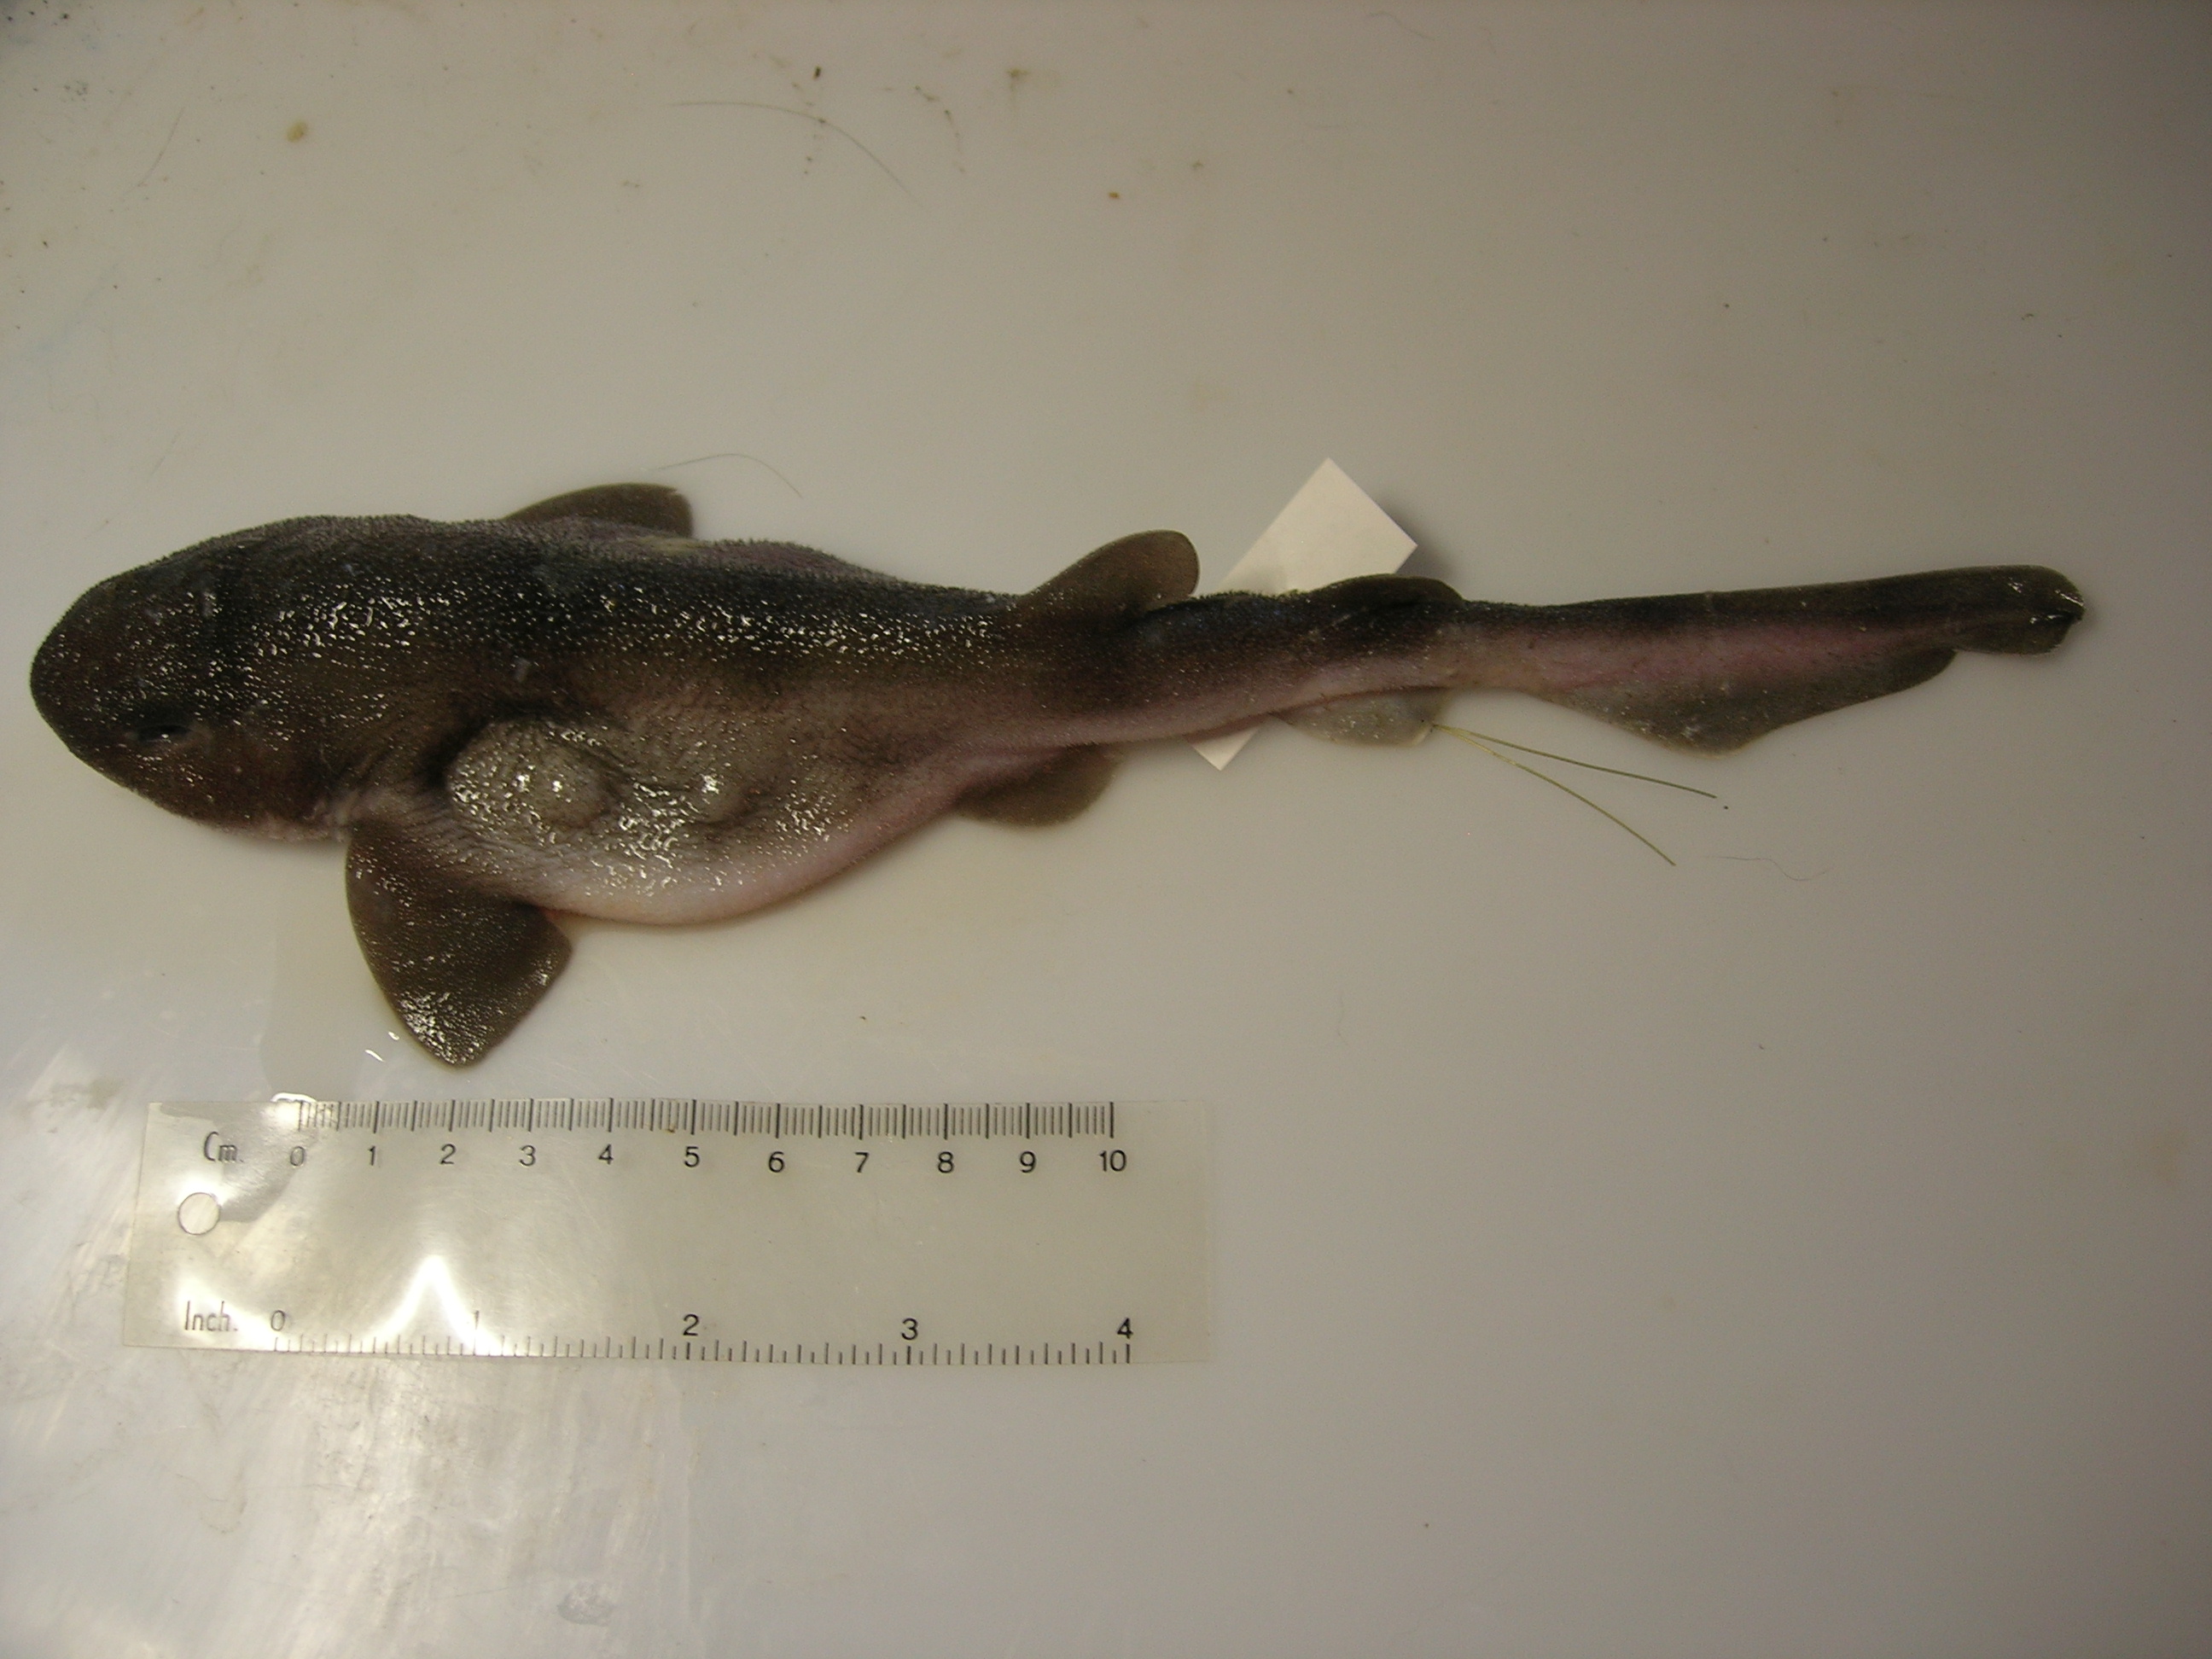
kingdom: Animalia
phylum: Chordata
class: Elasmobranchii
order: Carcharhiniformes
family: Scyliorhinidae
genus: Cephaloscyllium
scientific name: Cephaloscyllium sufflans
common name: Balloon shark
